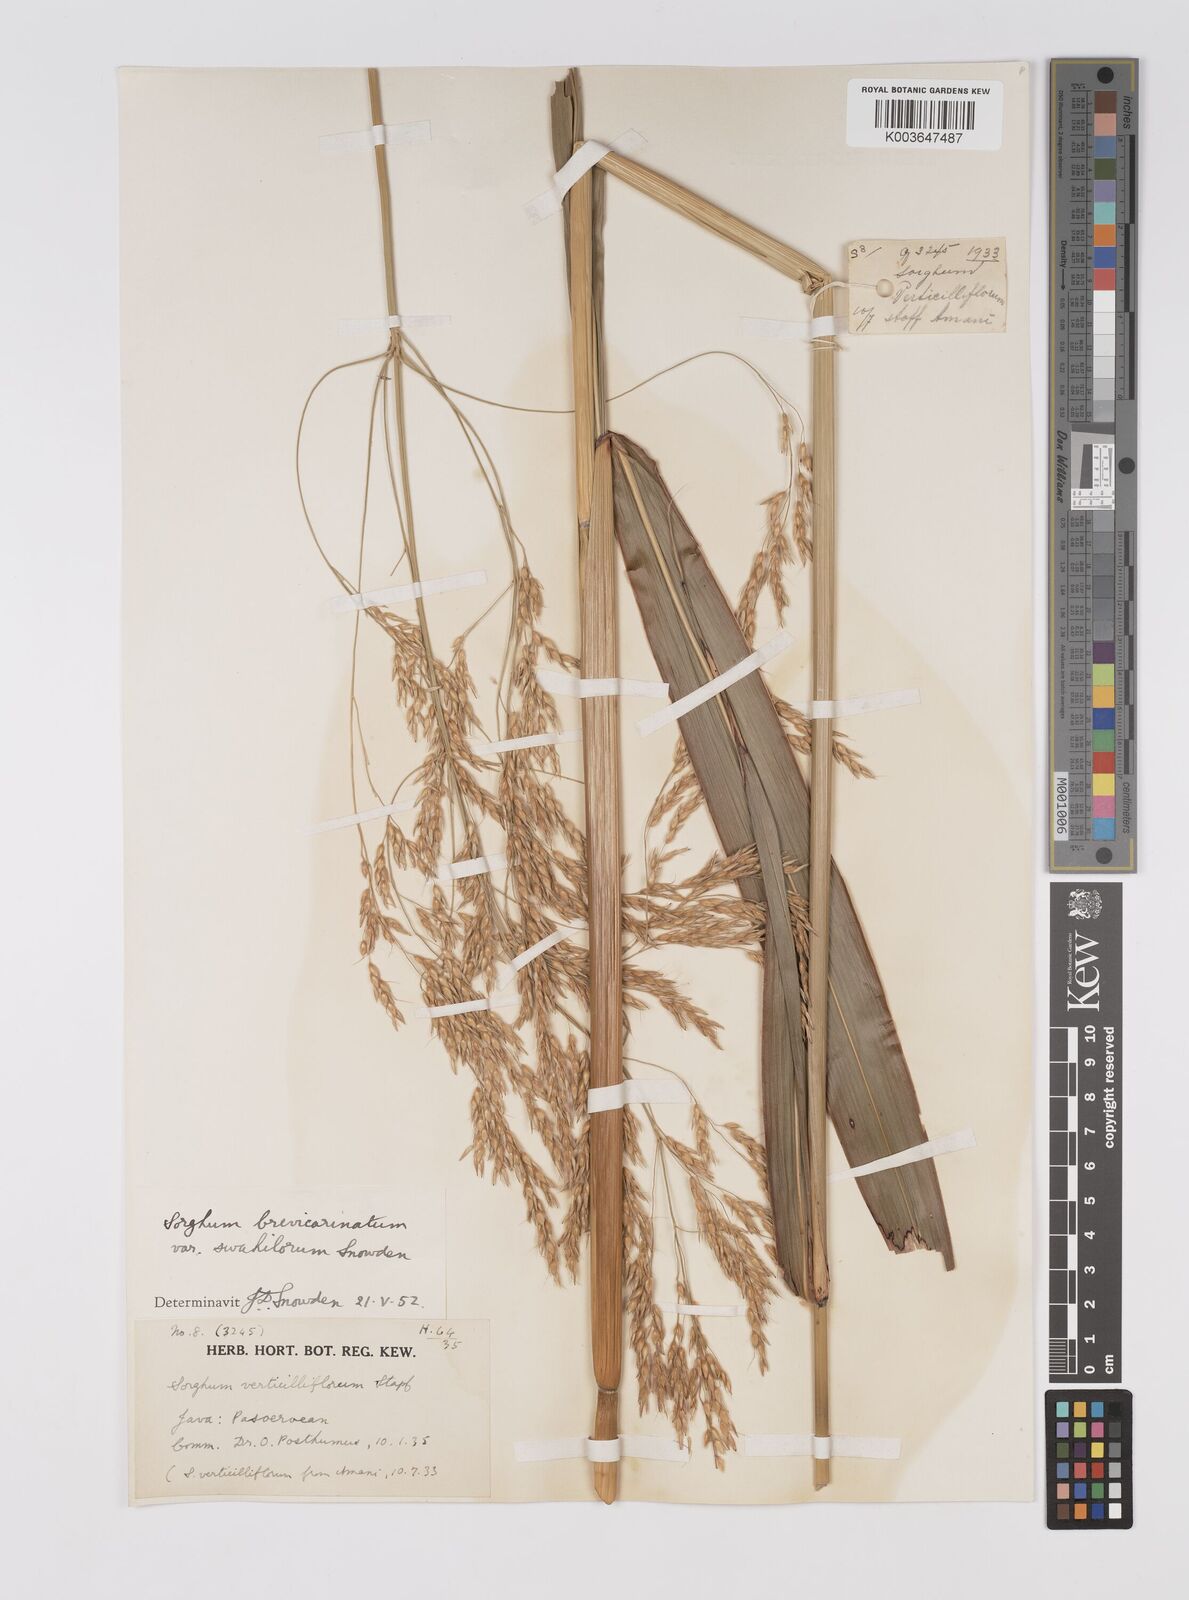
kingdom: Plantae
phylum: Tracheophyta
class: Liliopsida
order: Poales
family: Poaceae
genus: Sorghum
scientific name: Sorghum arundinaceum
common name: Sorghum
